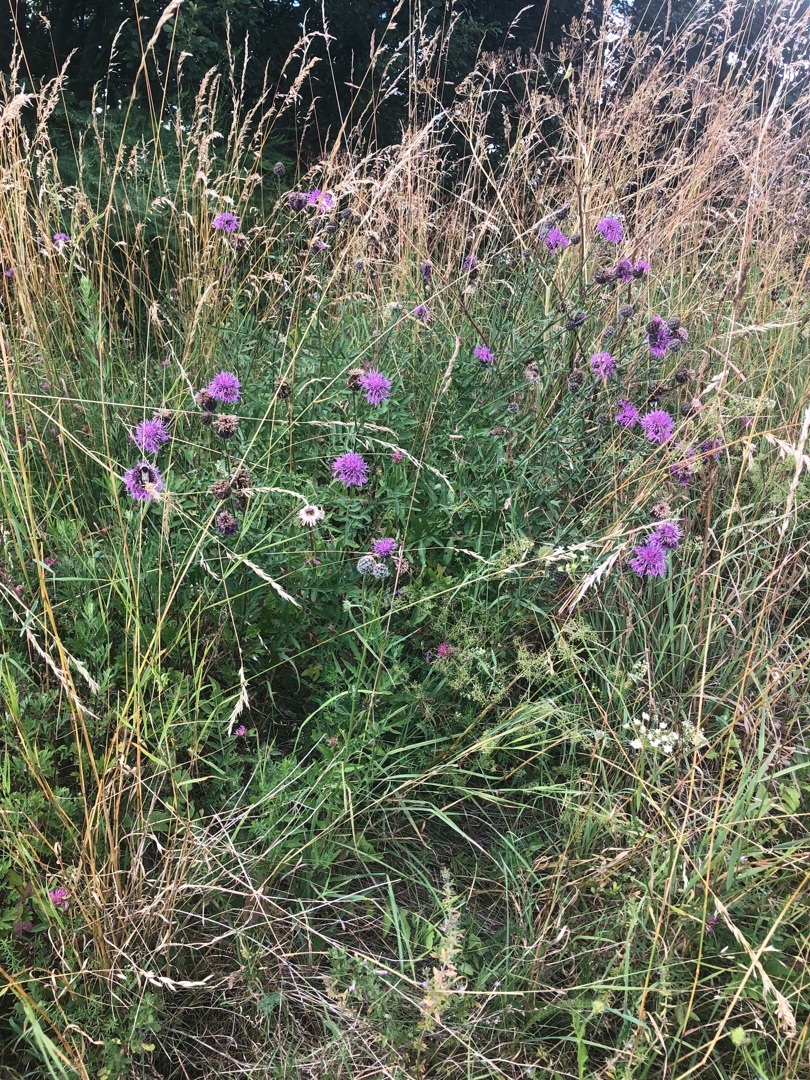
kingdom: Plantae
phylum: Tracheophyta
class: Magnoliopsida
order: Asterales
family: Asteraceae
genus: Centaurea
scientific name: Centaurea scabiosa
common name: Stor knopurt
